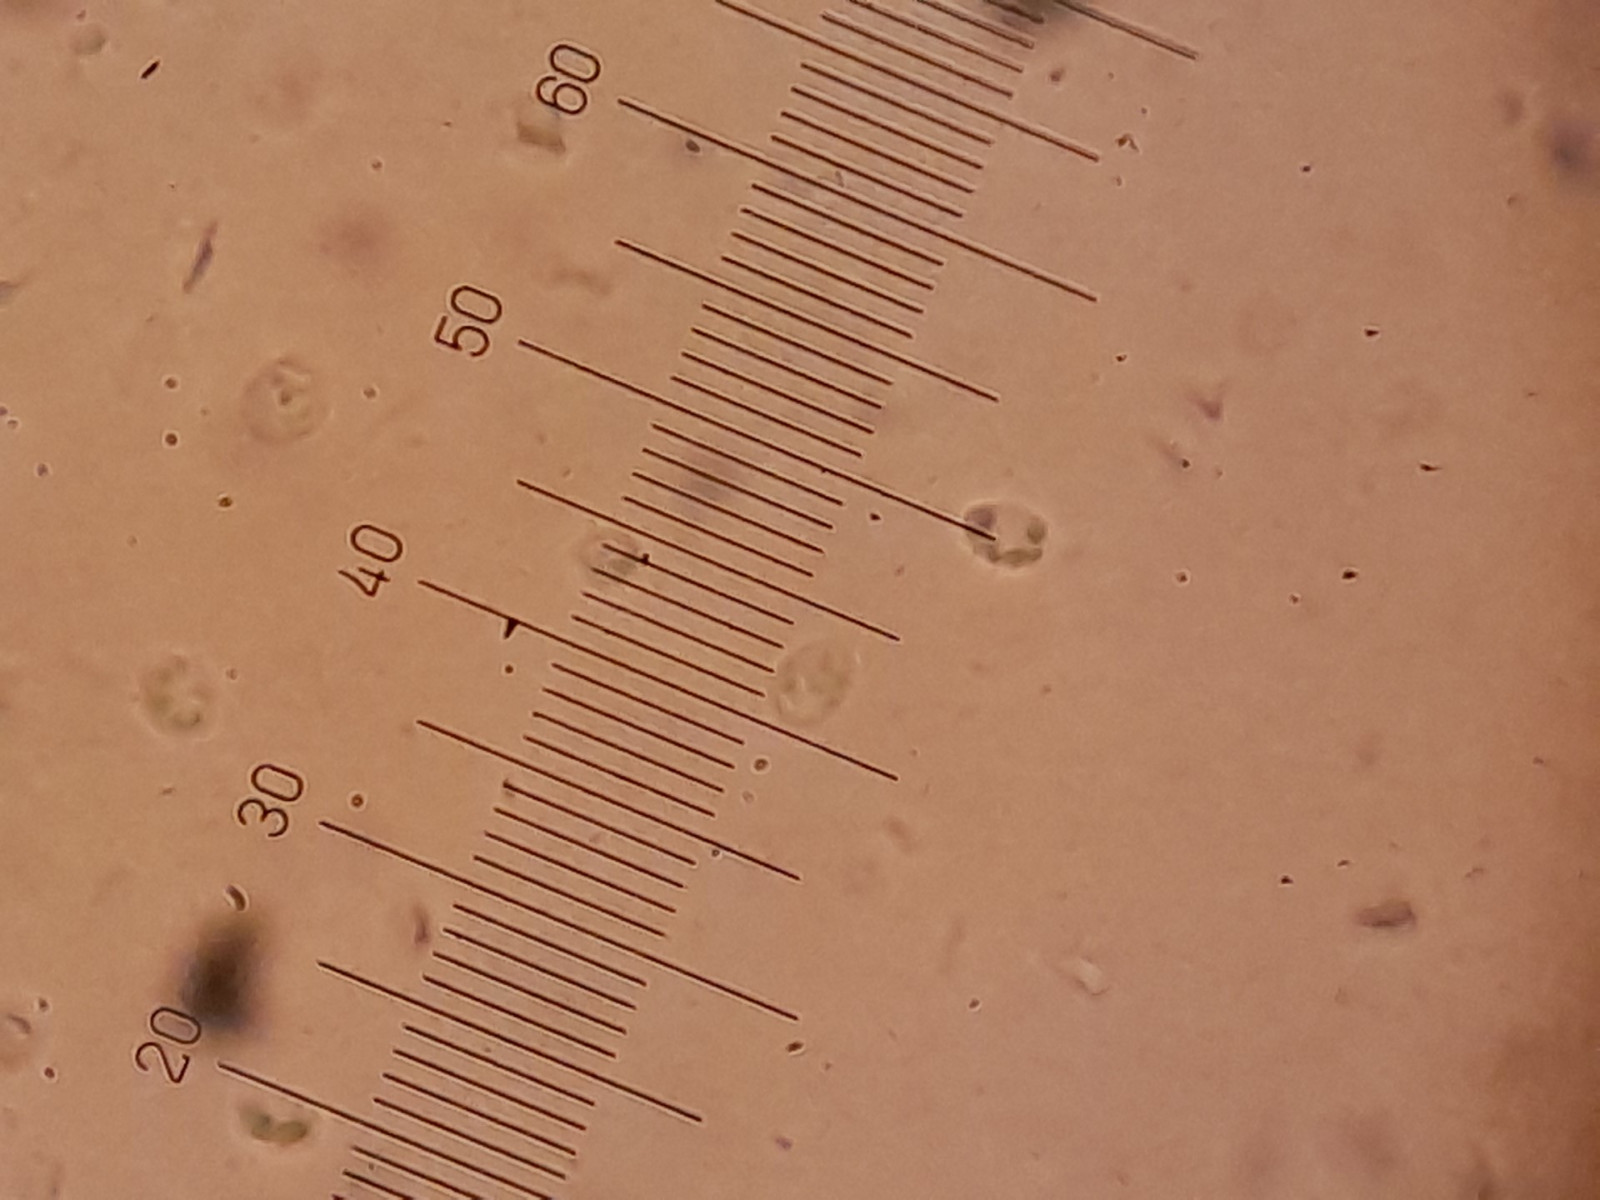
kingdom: Fungi
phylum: Basidiomycota
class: Agaricomycetes
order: Polyporales
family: Steccherinaceae
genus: Steccherinum
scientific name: Steccherinum ochraceum
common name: almindelig skønpig
